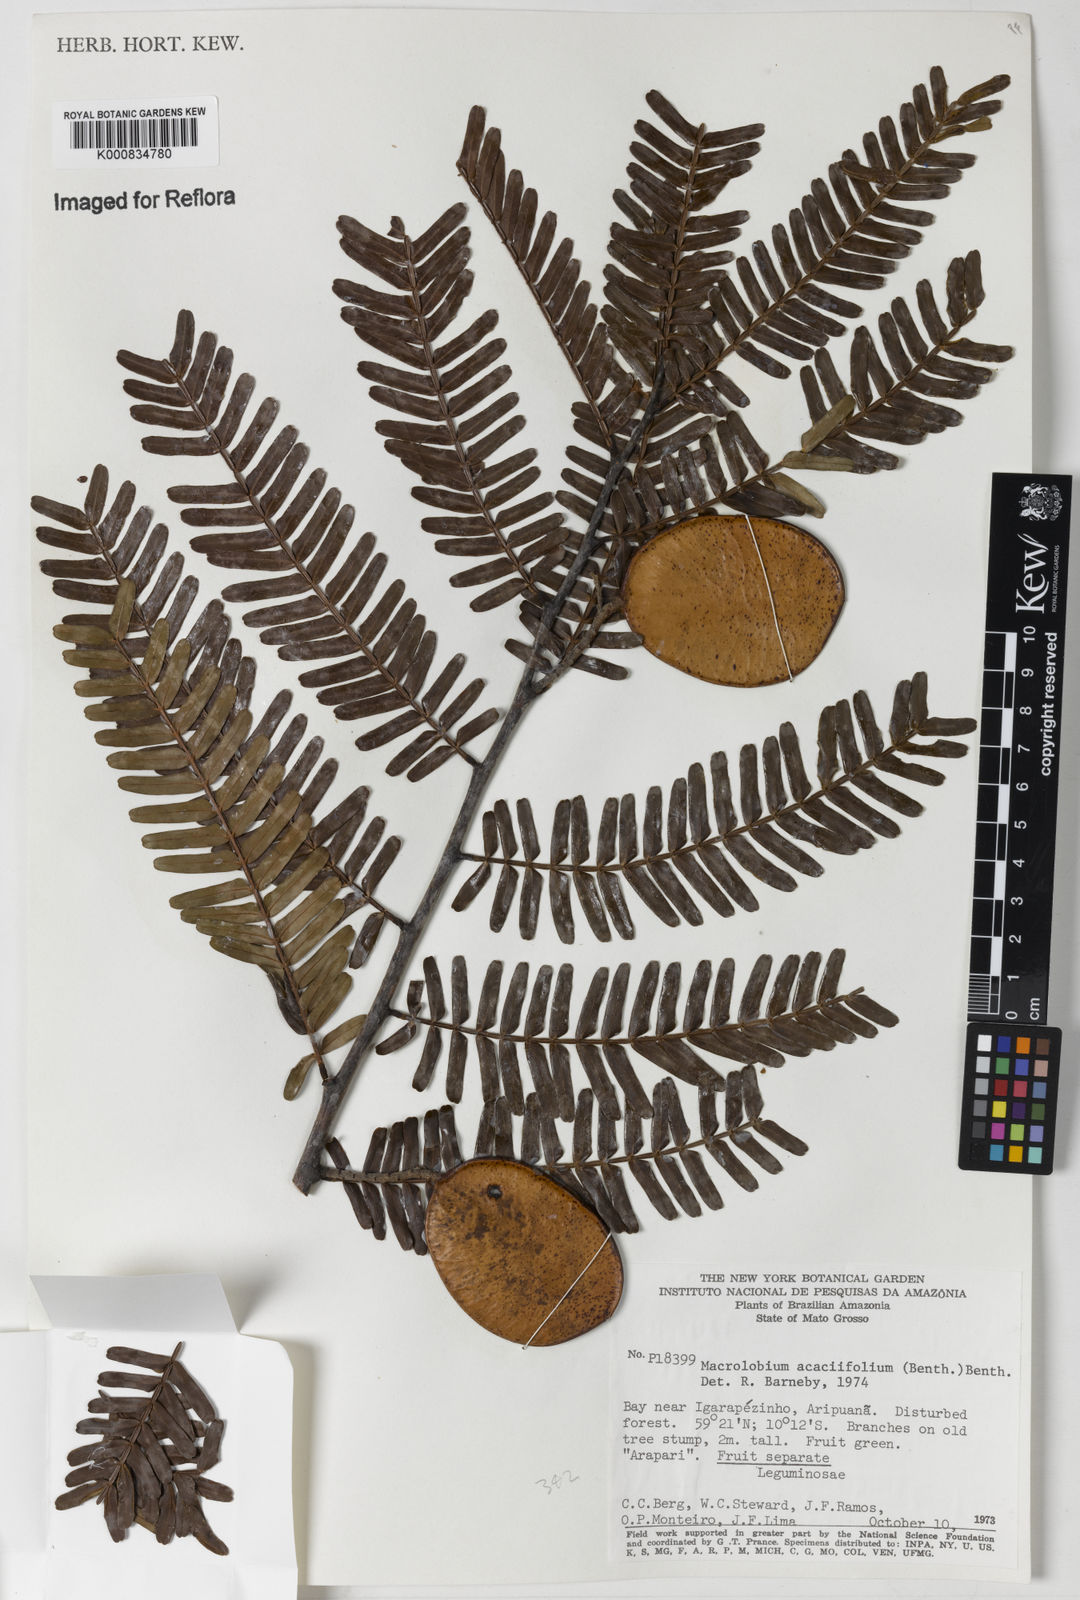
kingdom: Plantae
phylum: Tracheophyta
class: Magnoliopsida
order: Fabales
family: Fabaceae
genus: Macrolobium
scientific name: Macrolobium acaciifolium
